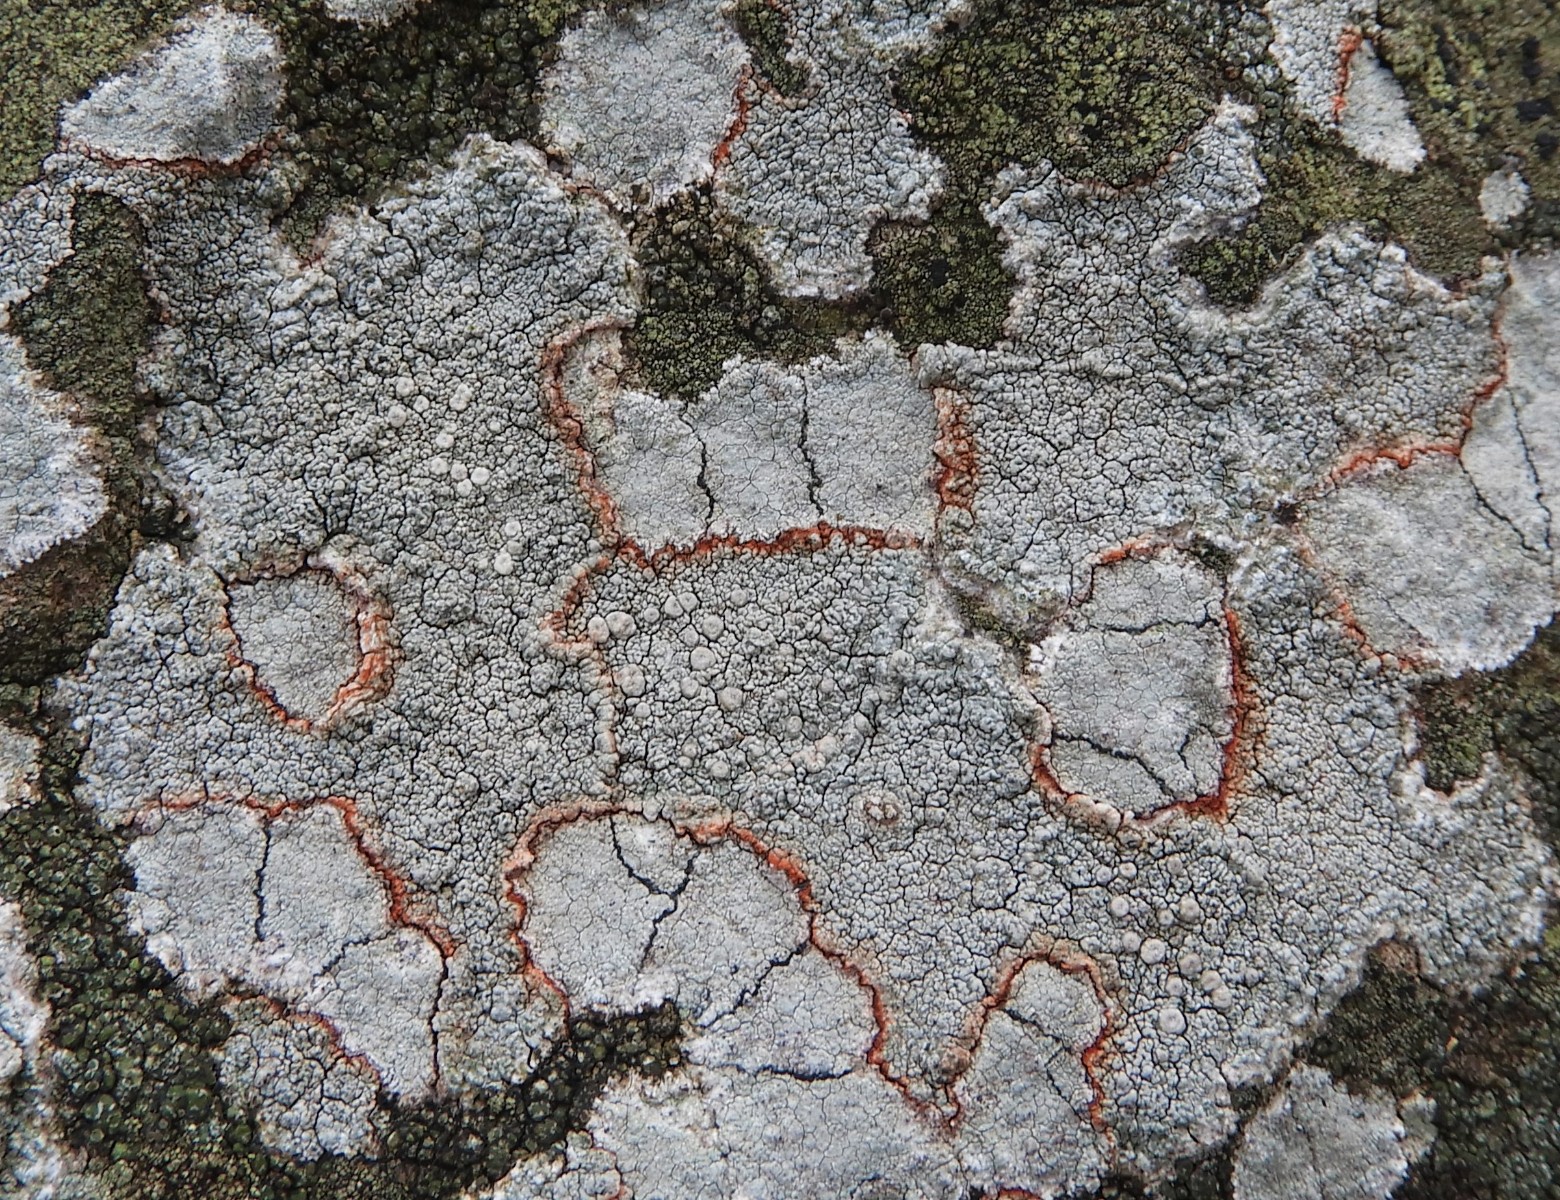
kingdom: Fungi
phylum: Ascomycota
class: Lecanoromycetes
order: Pertusariales
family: Ochrolechiaceae
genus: Ochrolechia
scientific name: Ochrolechia parella
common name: almindelig blegskivelav
